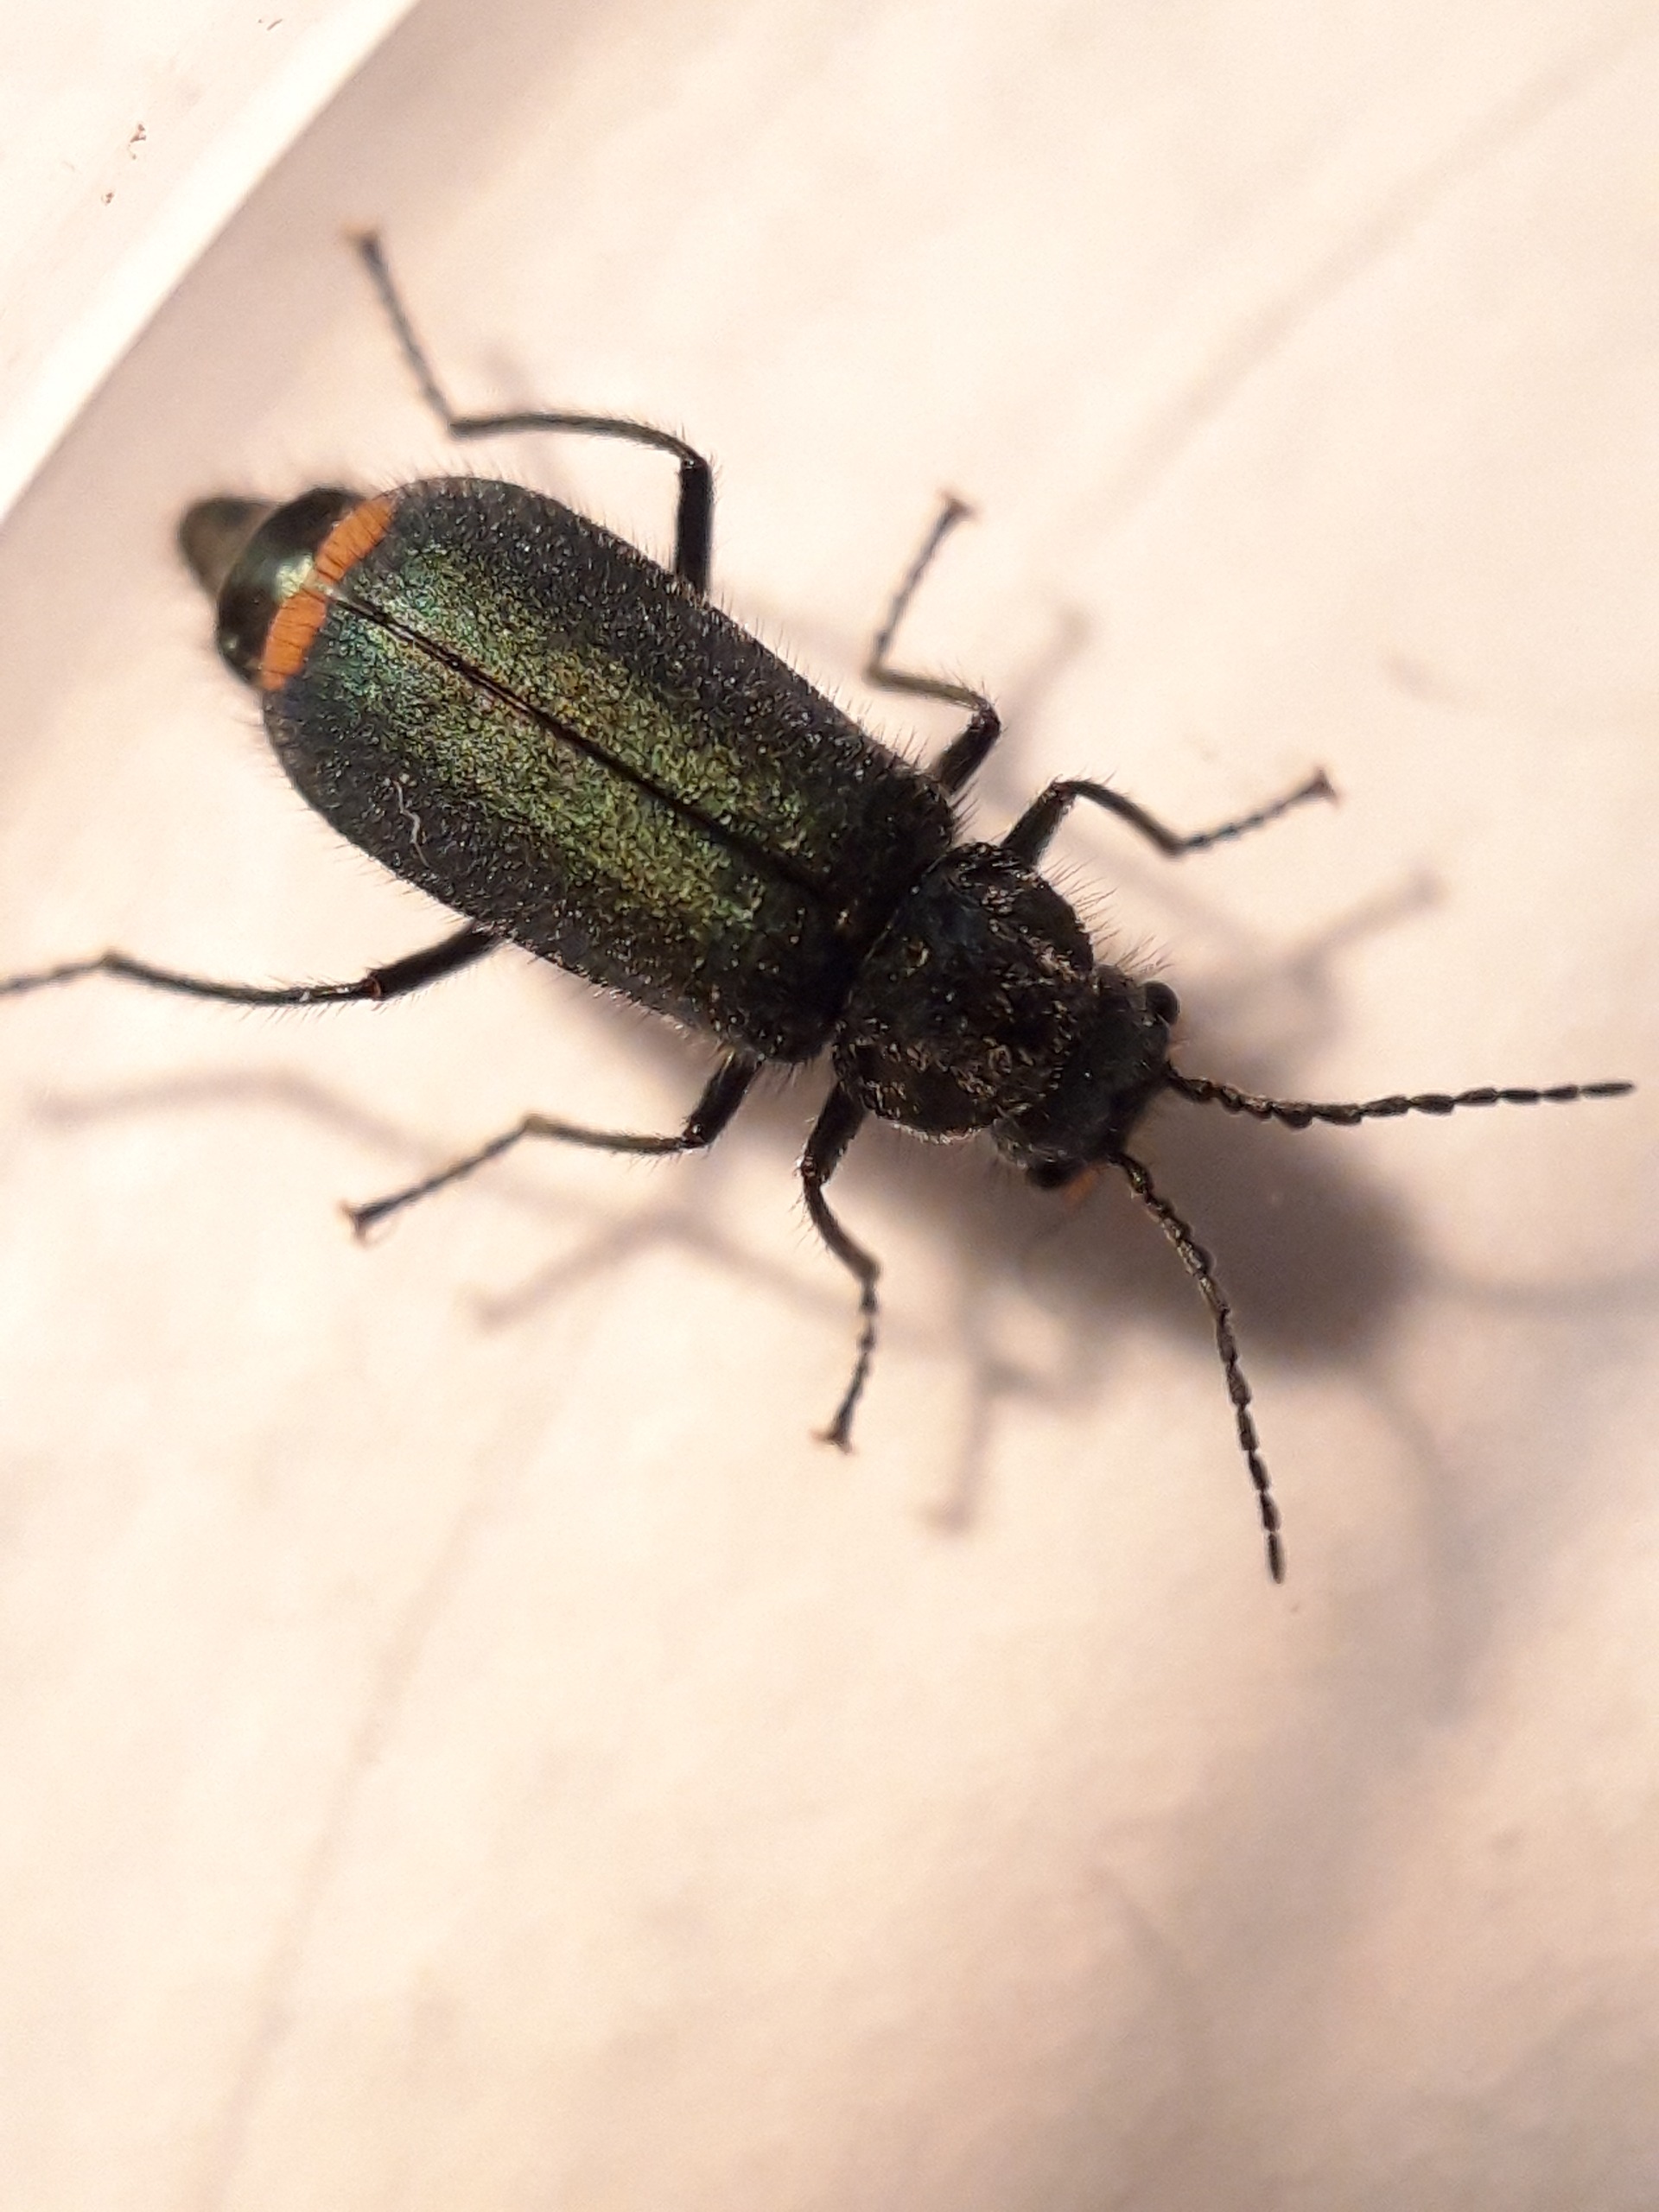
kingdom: Animalia
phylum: Arthropoda
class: Insecta
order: Coleoptera
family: Melyridae
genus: Malachius
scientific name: Malachius bipustulatus
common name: Skovmalakitbille
